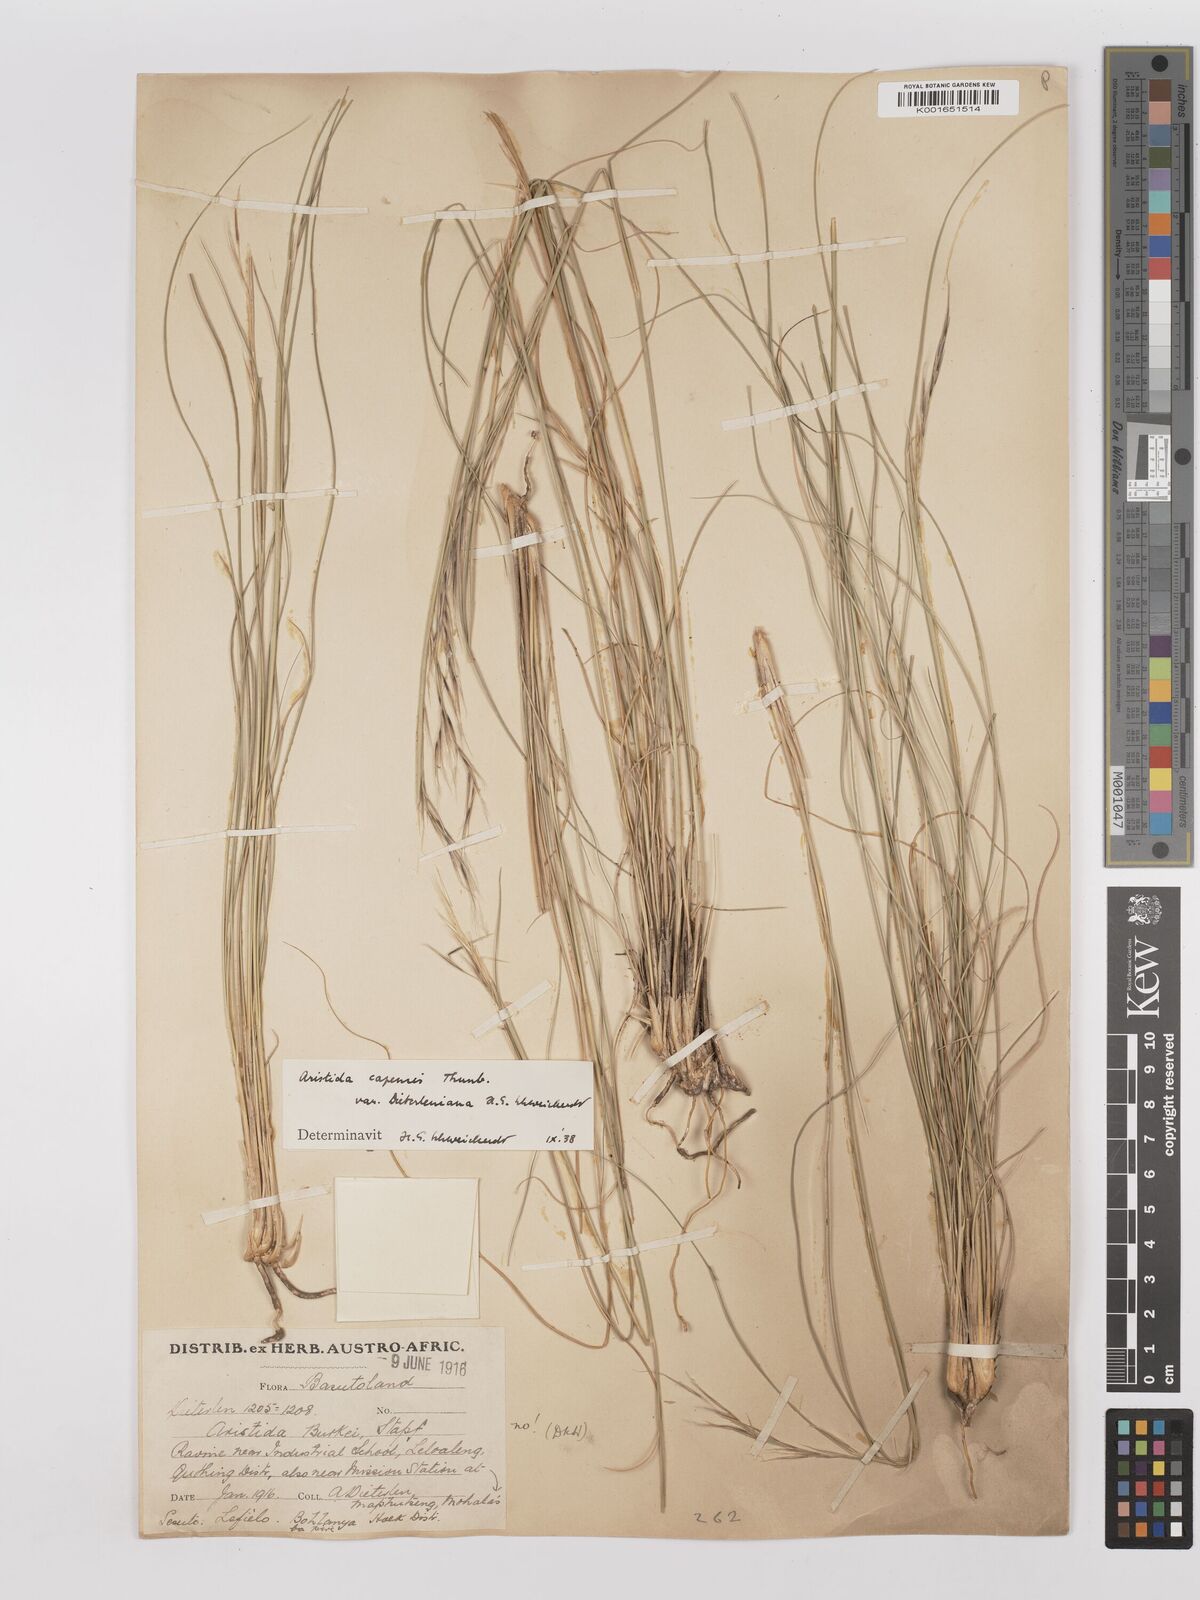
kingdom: Plantae
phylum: Tracheophyta
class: Liliopsida
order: Poales
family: Poaceae
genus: Stipagrostis
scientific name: Stipagrostis zeyheri
